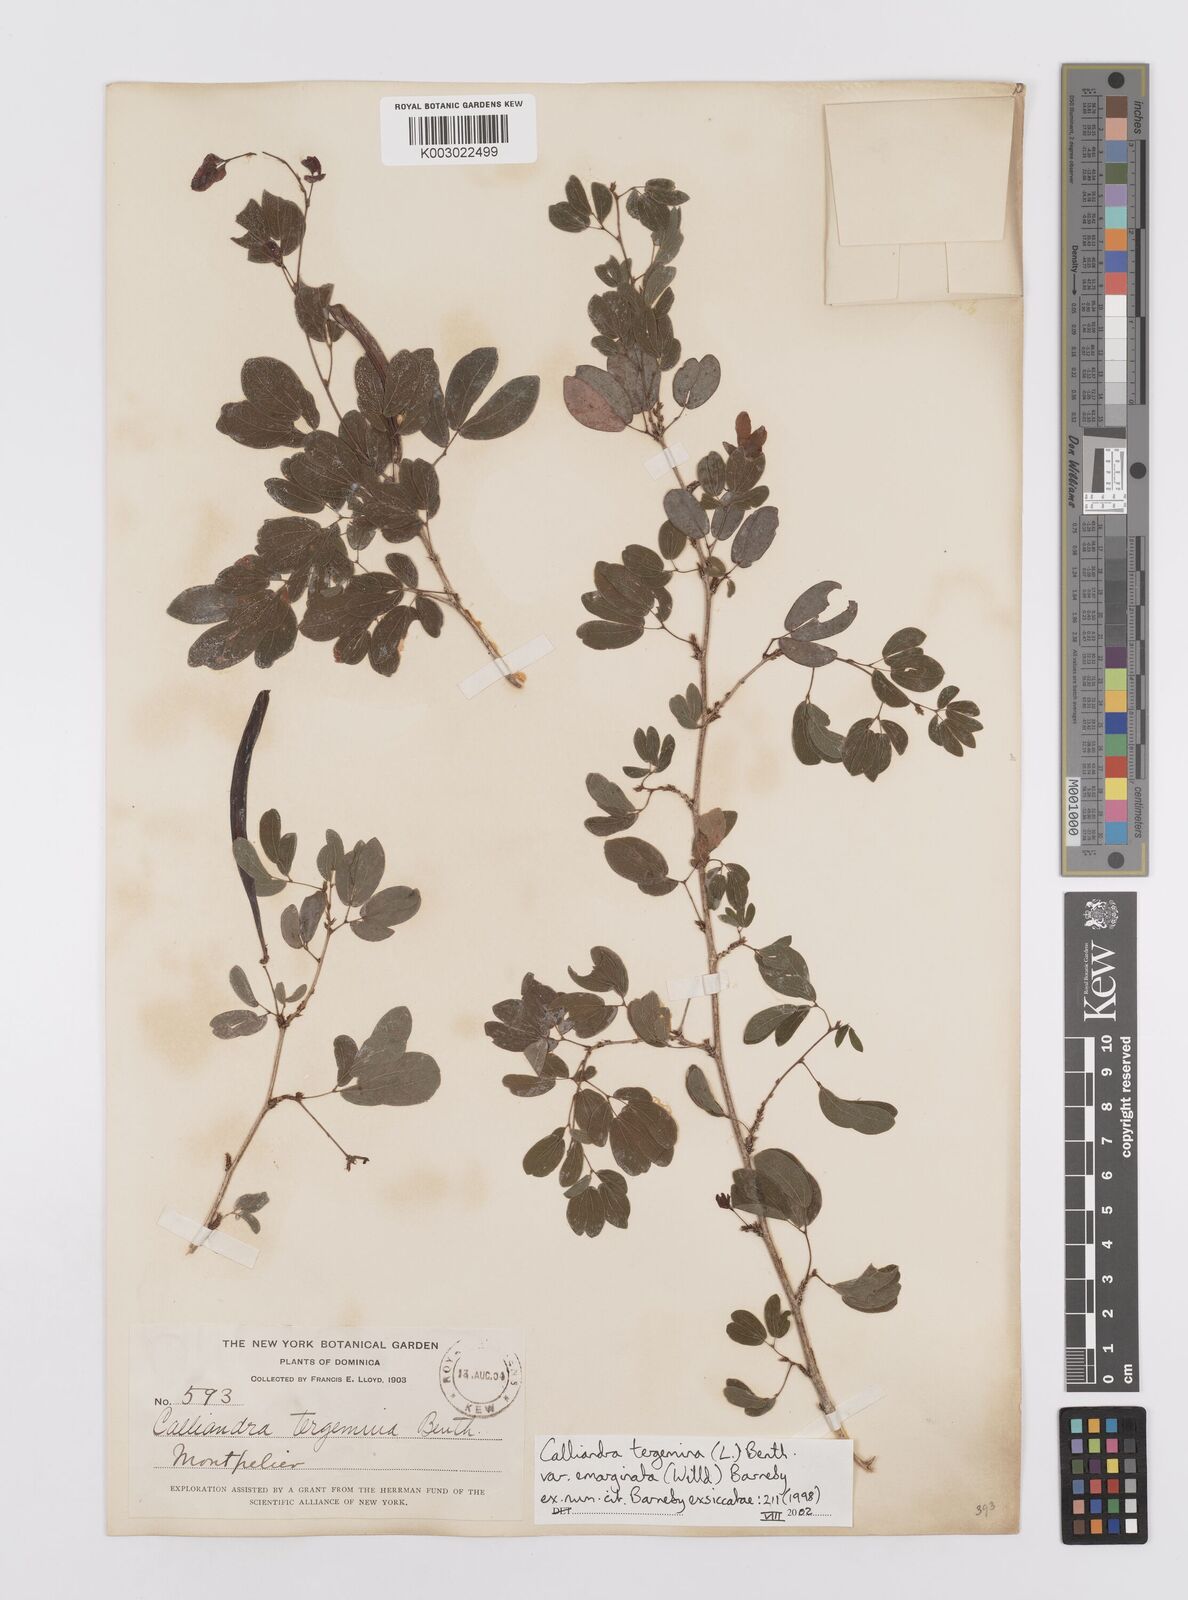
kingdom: Plantae
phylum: Tracheophyta
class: Magnoliopsida
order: Fabales
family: Fabaceae
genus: Calliandra
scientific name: Calliandra tergemina
